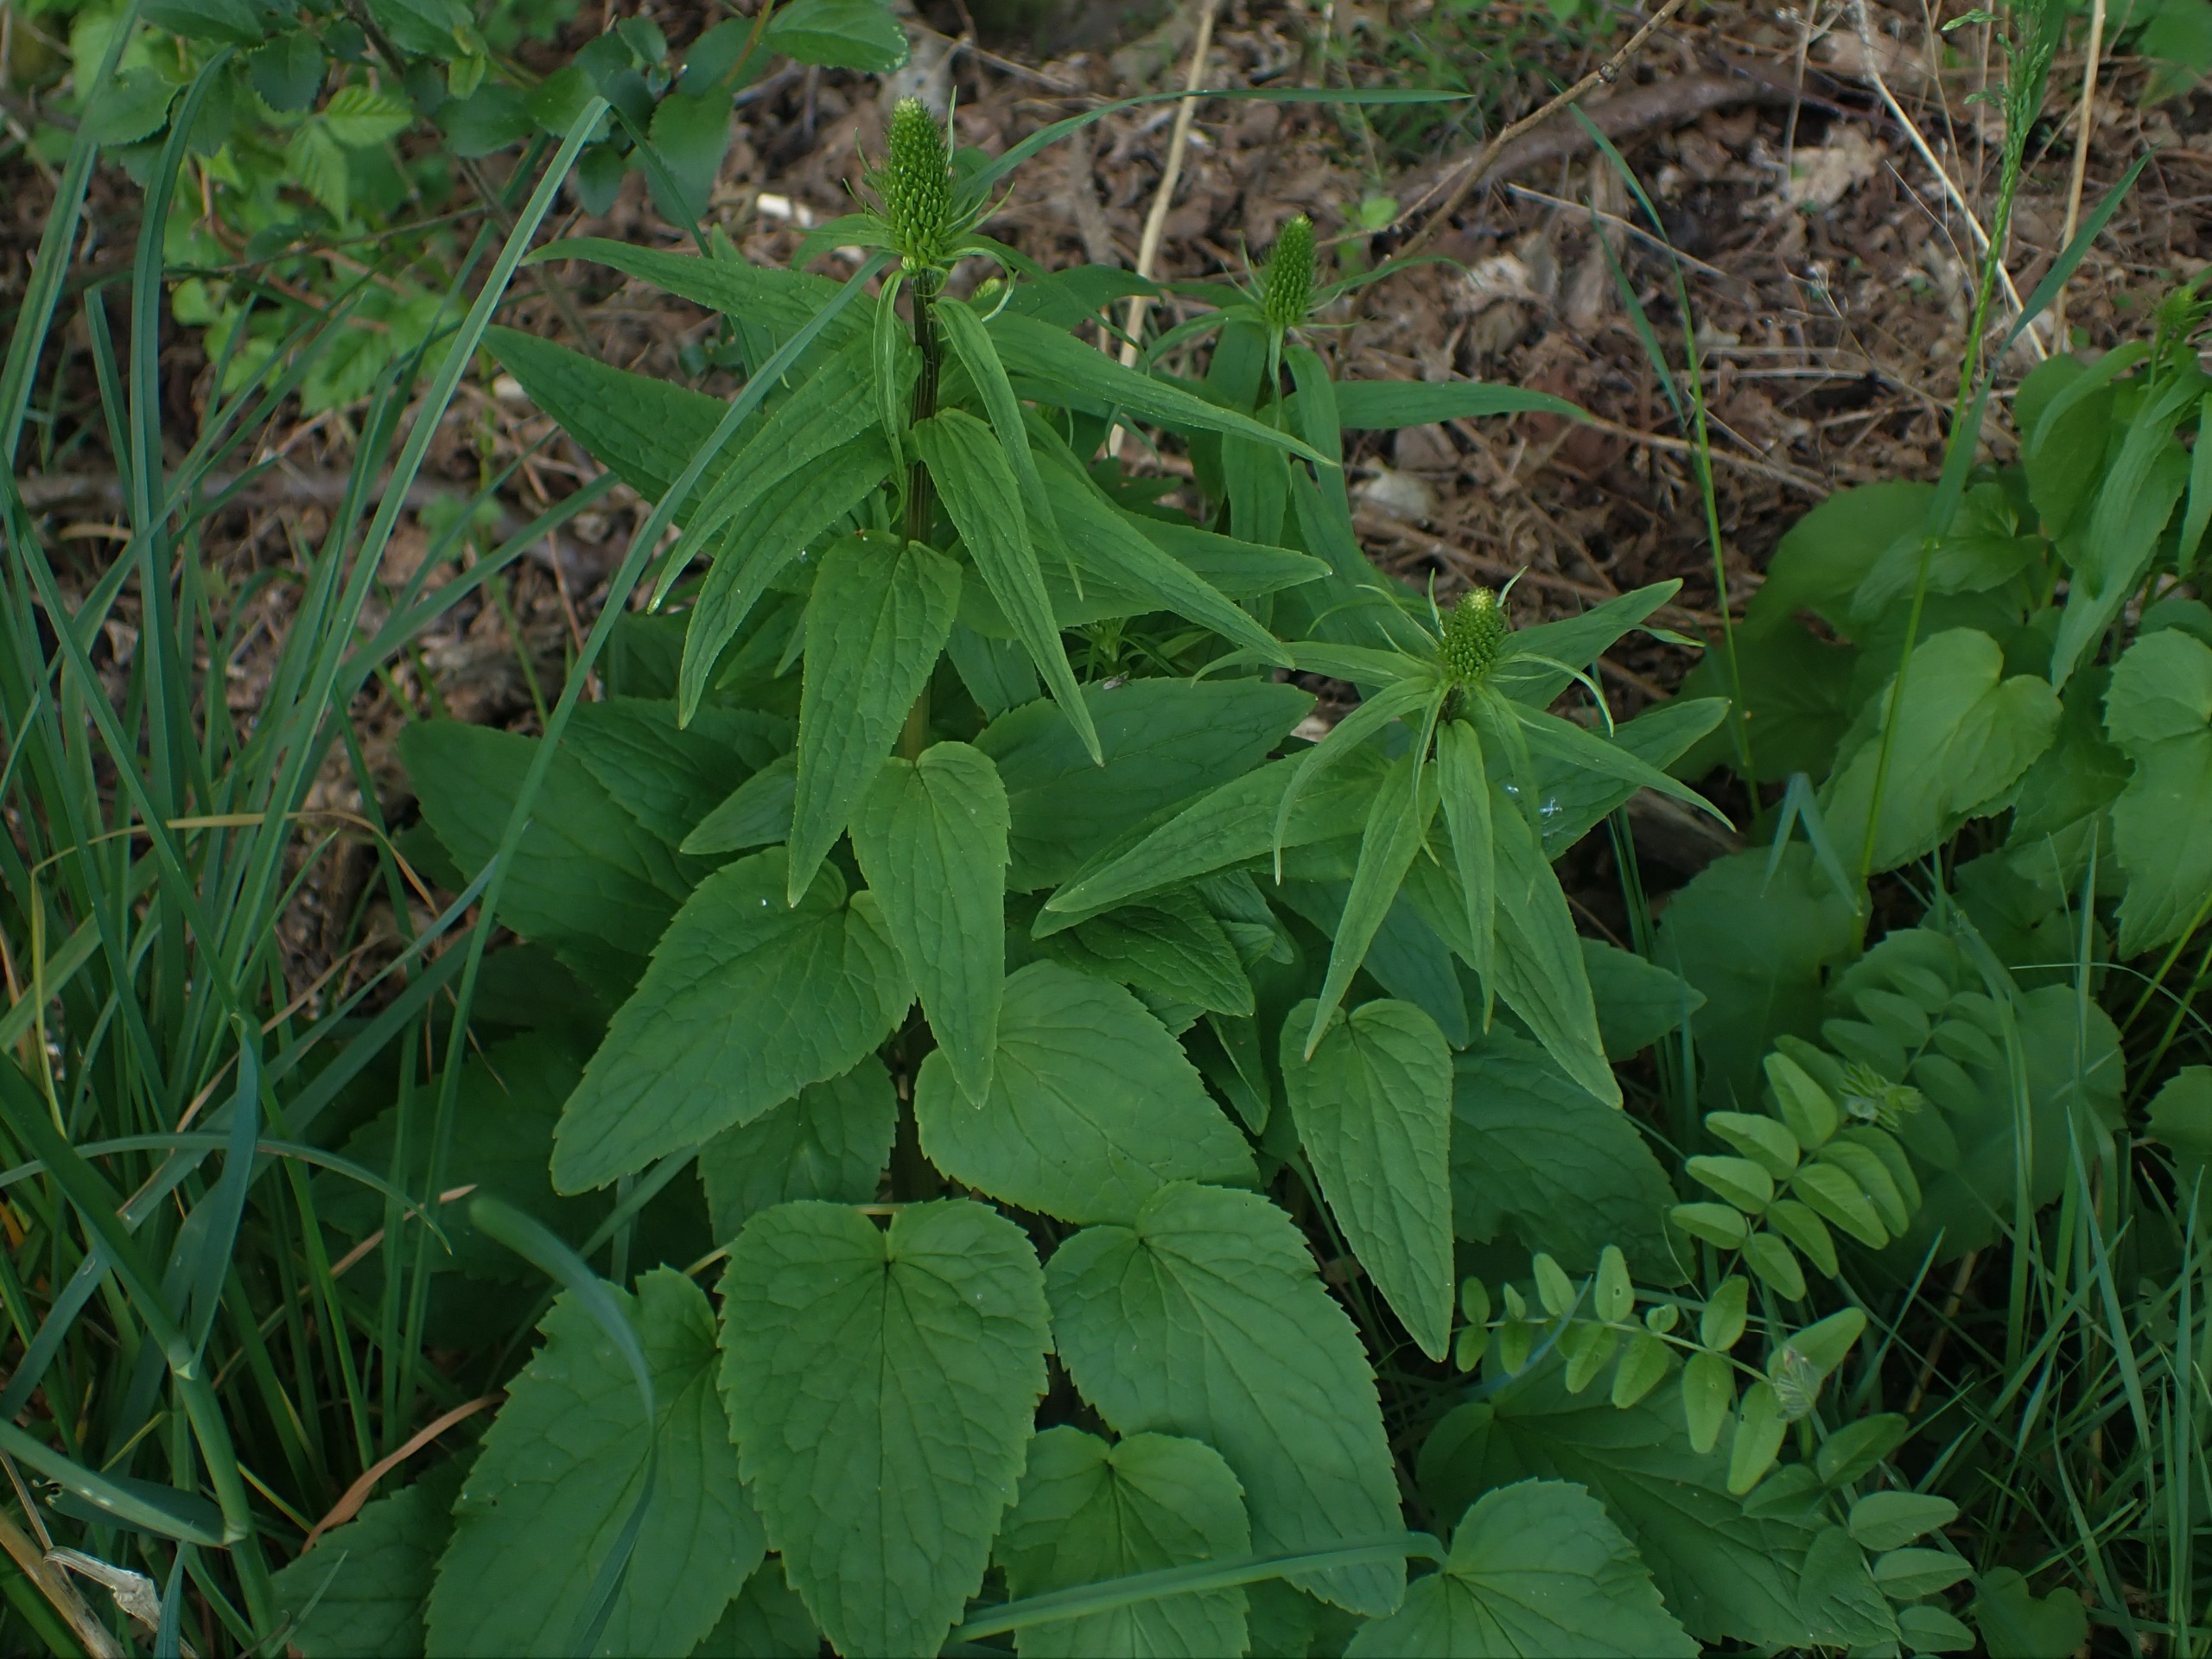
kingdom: Plantae
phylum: Tracheophyta
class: Magnoliopsida
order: Asterales
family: Campanulaceae
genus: Phyteuma
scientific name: Phyteuma spicatum
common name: Aks-rapunsel
